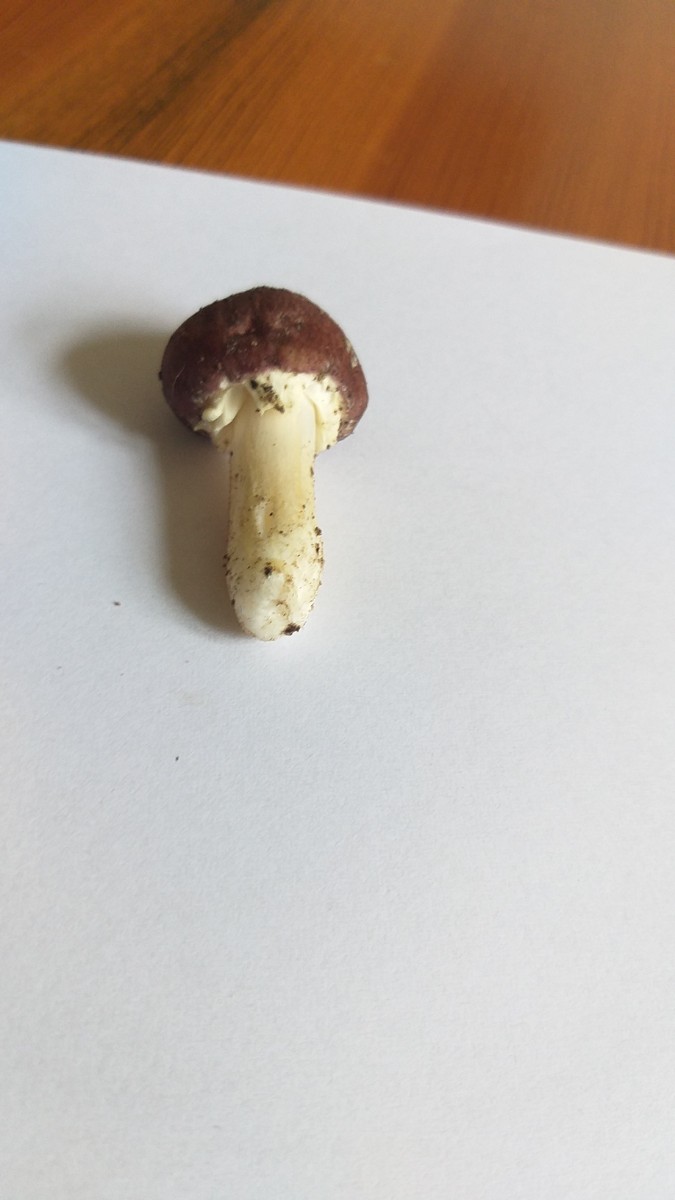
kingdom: Fungi
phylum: Basidiomycota
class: Agaricomycetes
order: Agaricales
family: Strophariaceae
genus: Stropharia
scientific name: Stropharia rugosoannulata
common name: rødbrun bredblad
